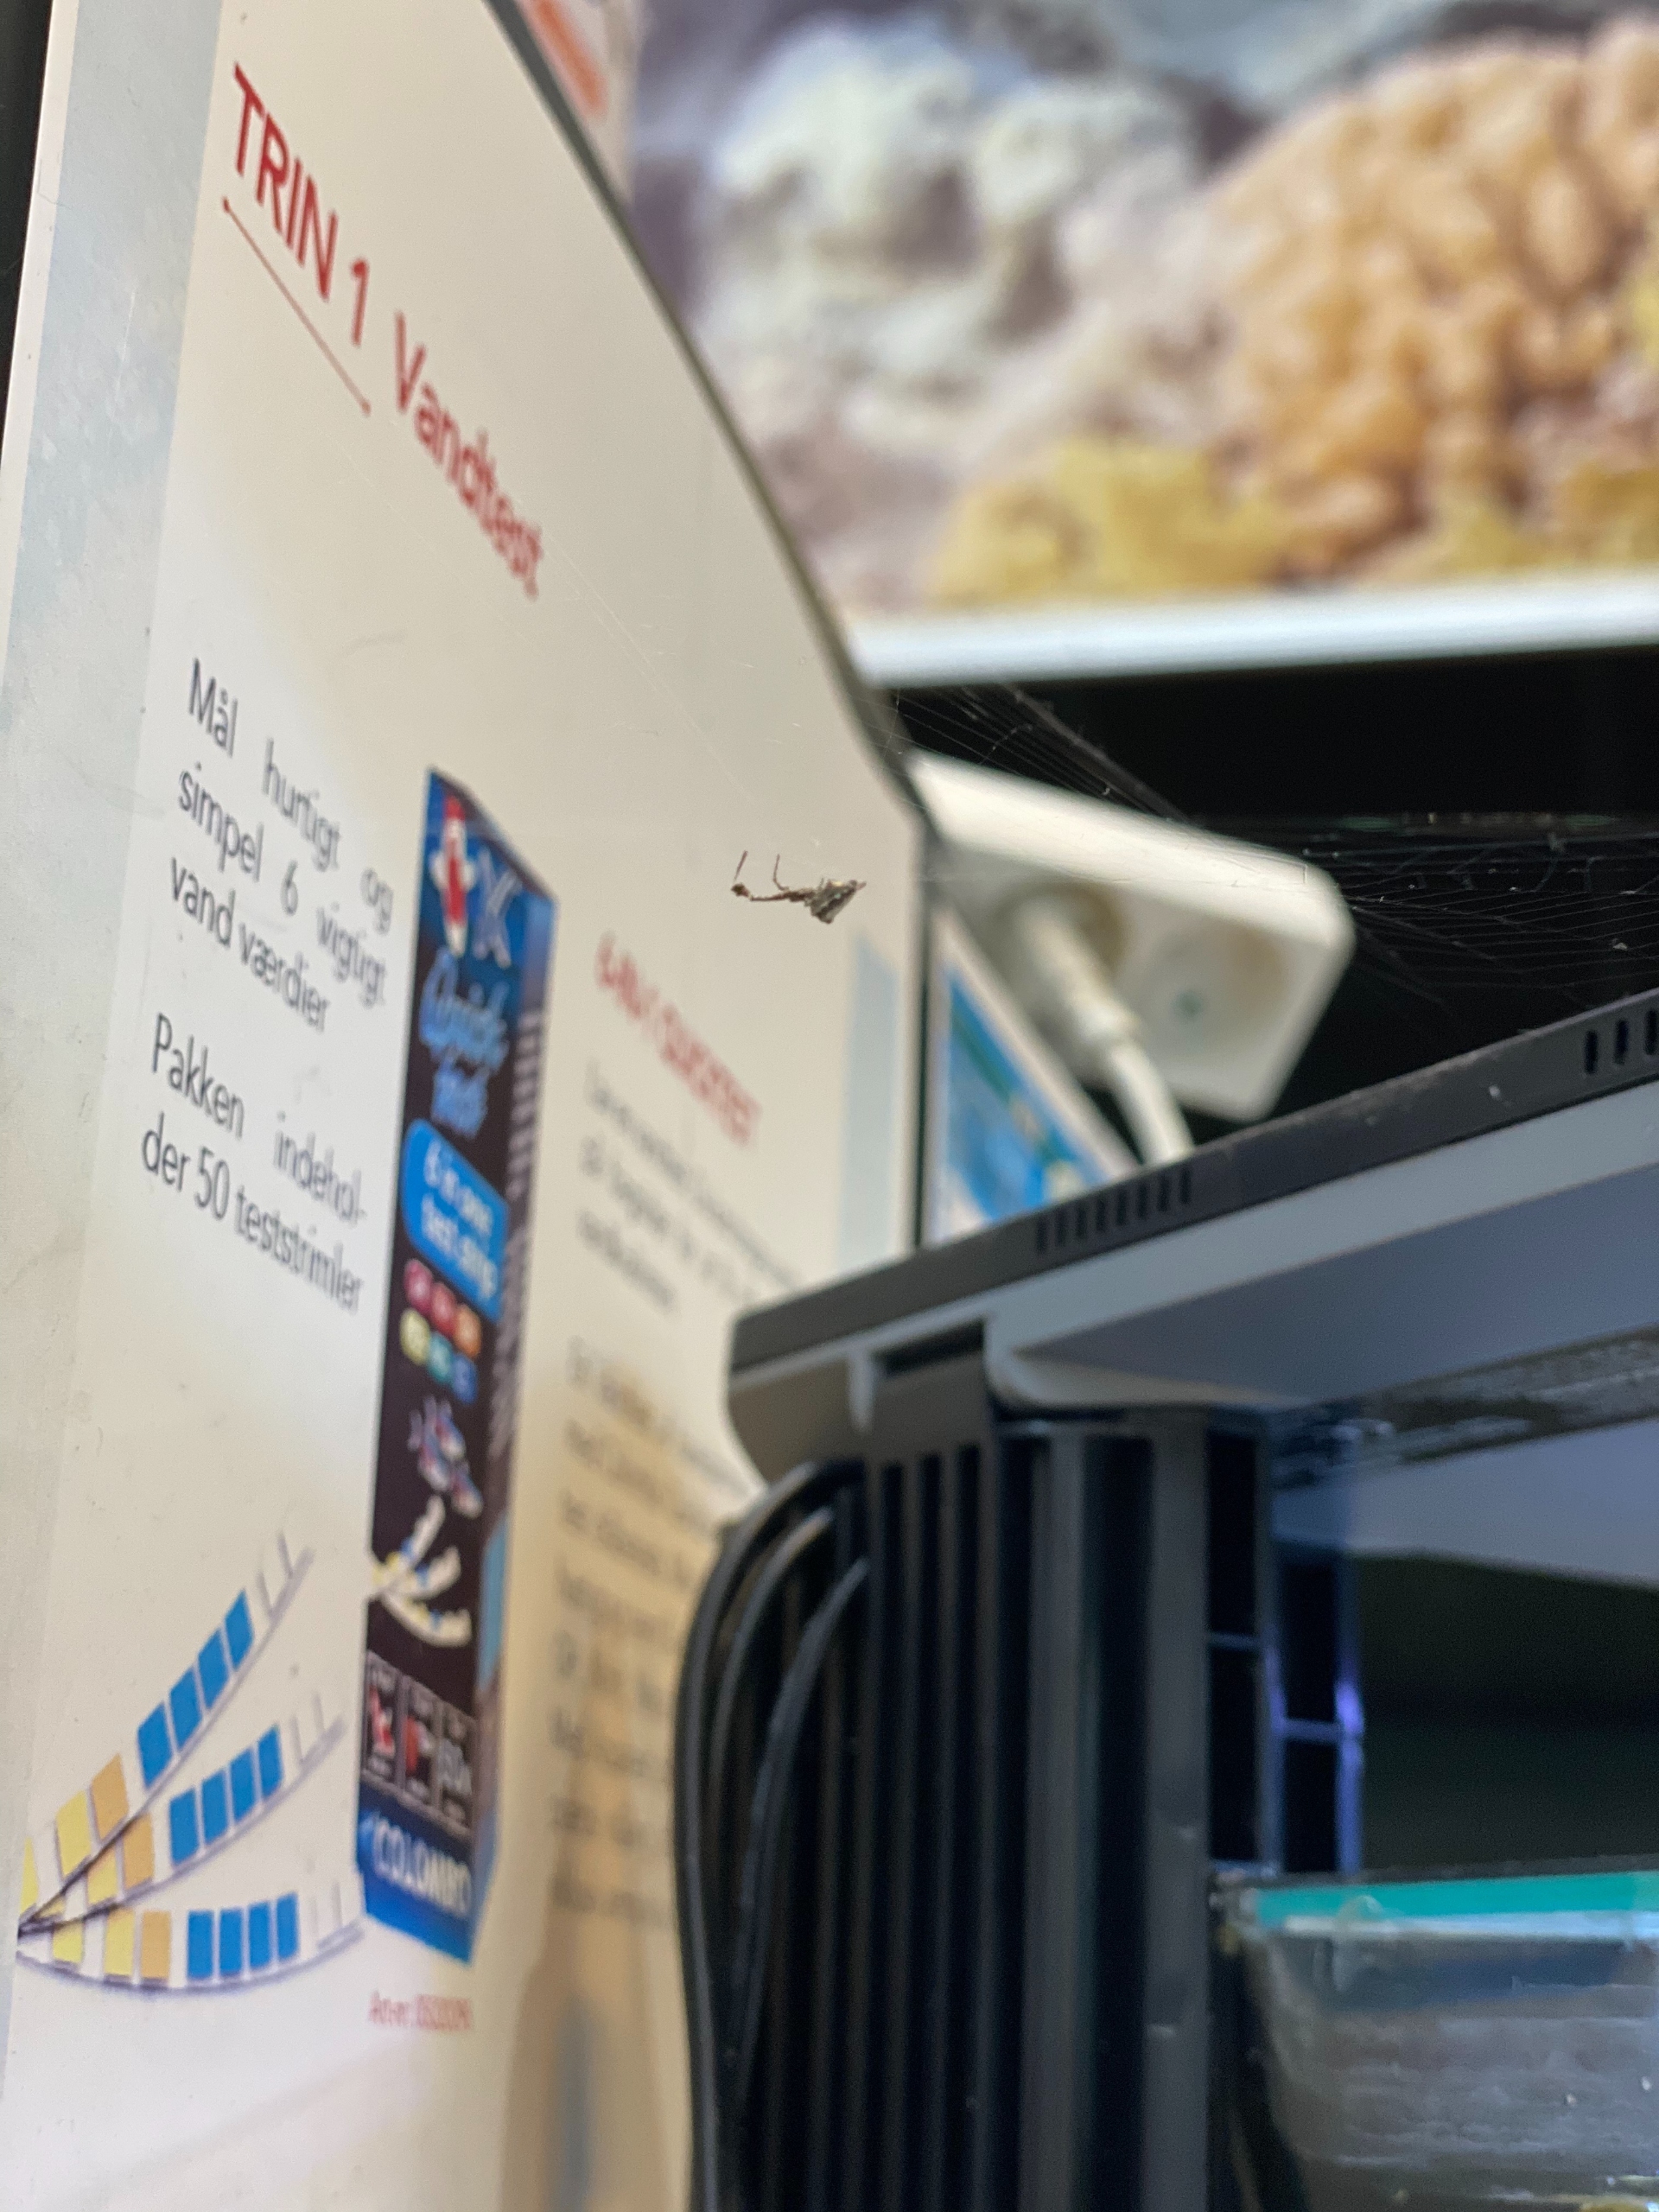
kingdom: Animalia
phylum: Arthropoda
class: Arachnida
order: Araneae
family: Uloboridae
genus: Uloborus
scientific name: Uloborus plumipes
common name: Fjerbenet edderkop
